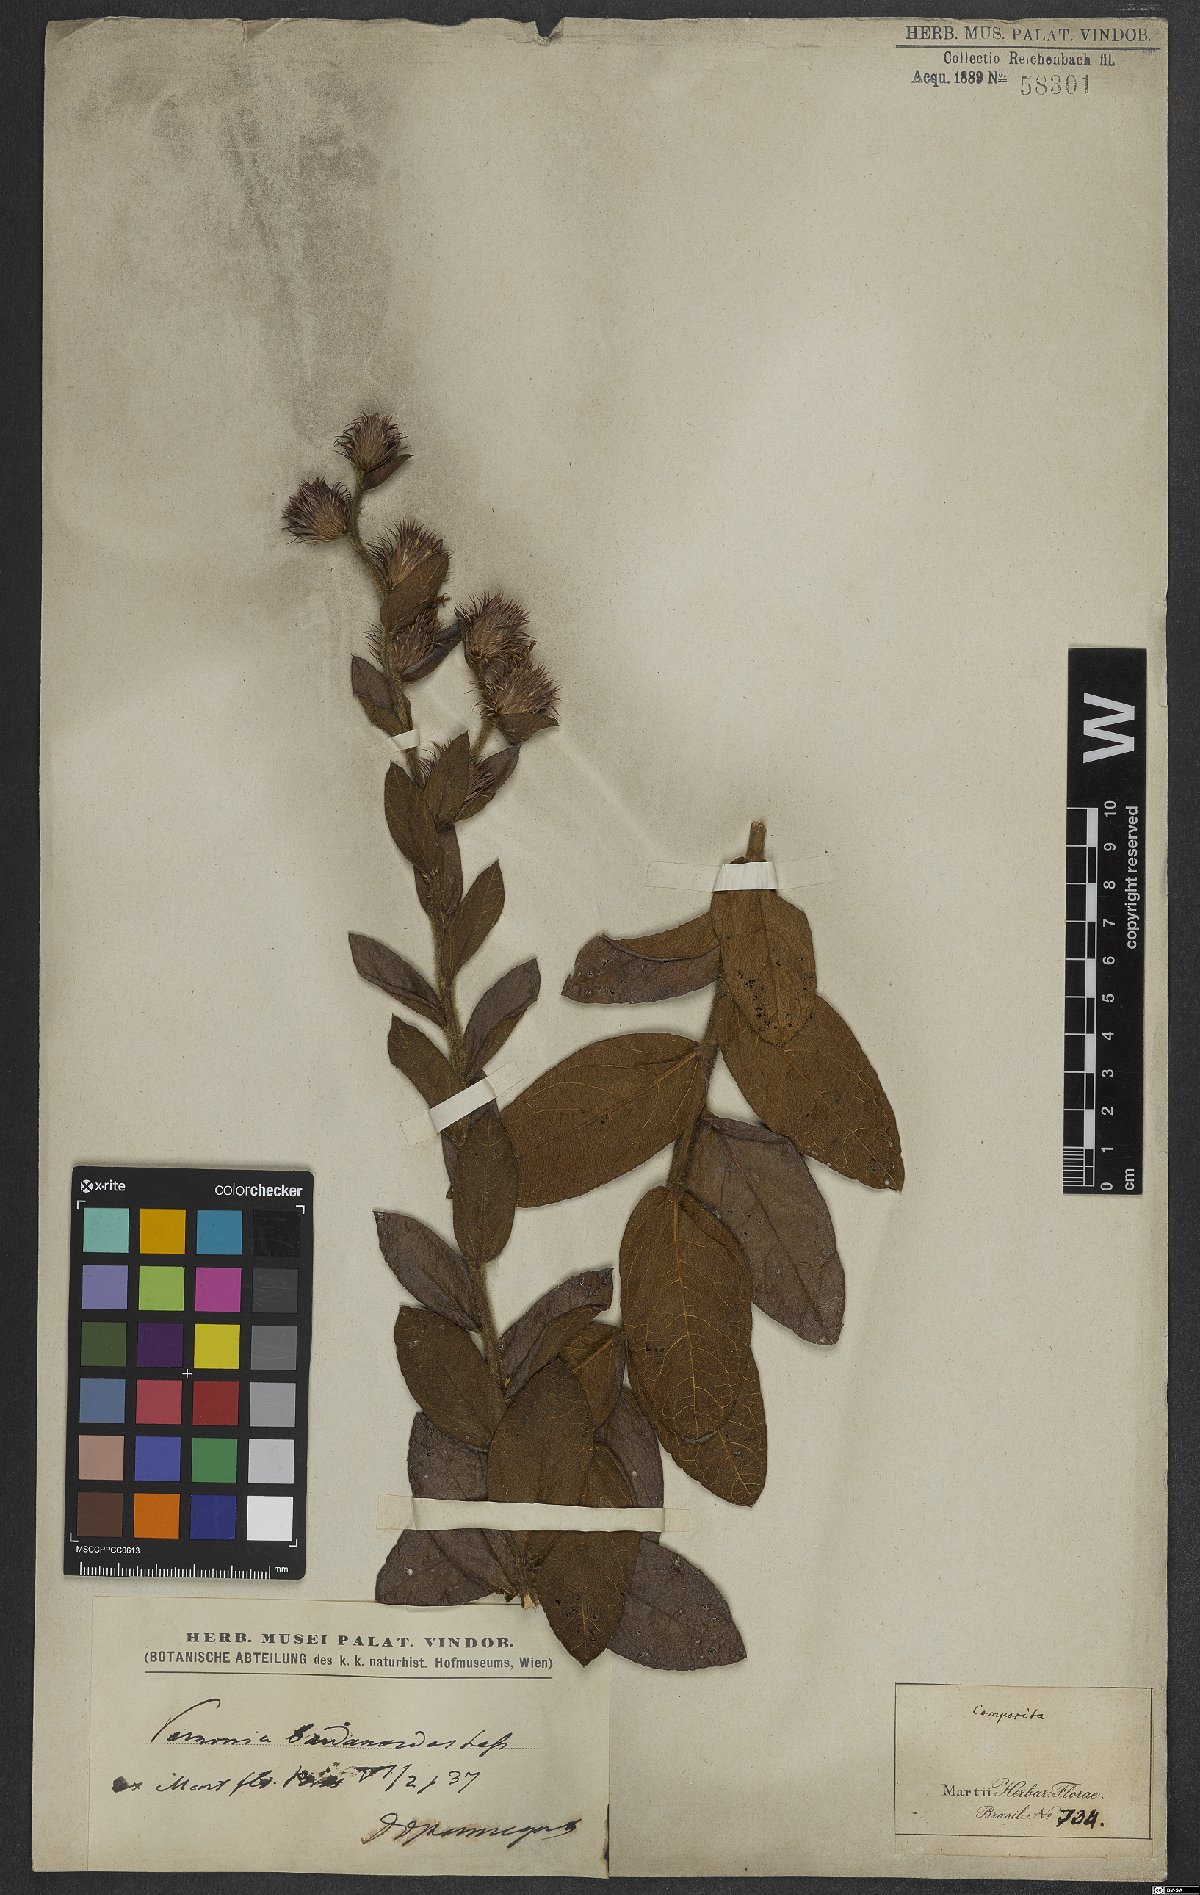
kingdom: Plantae
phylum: Tracheophyta
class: Magnoliopsida
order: Asterales
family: Asteraceae
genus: Lessingianthus
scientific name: Lessingianthus bardanioides
